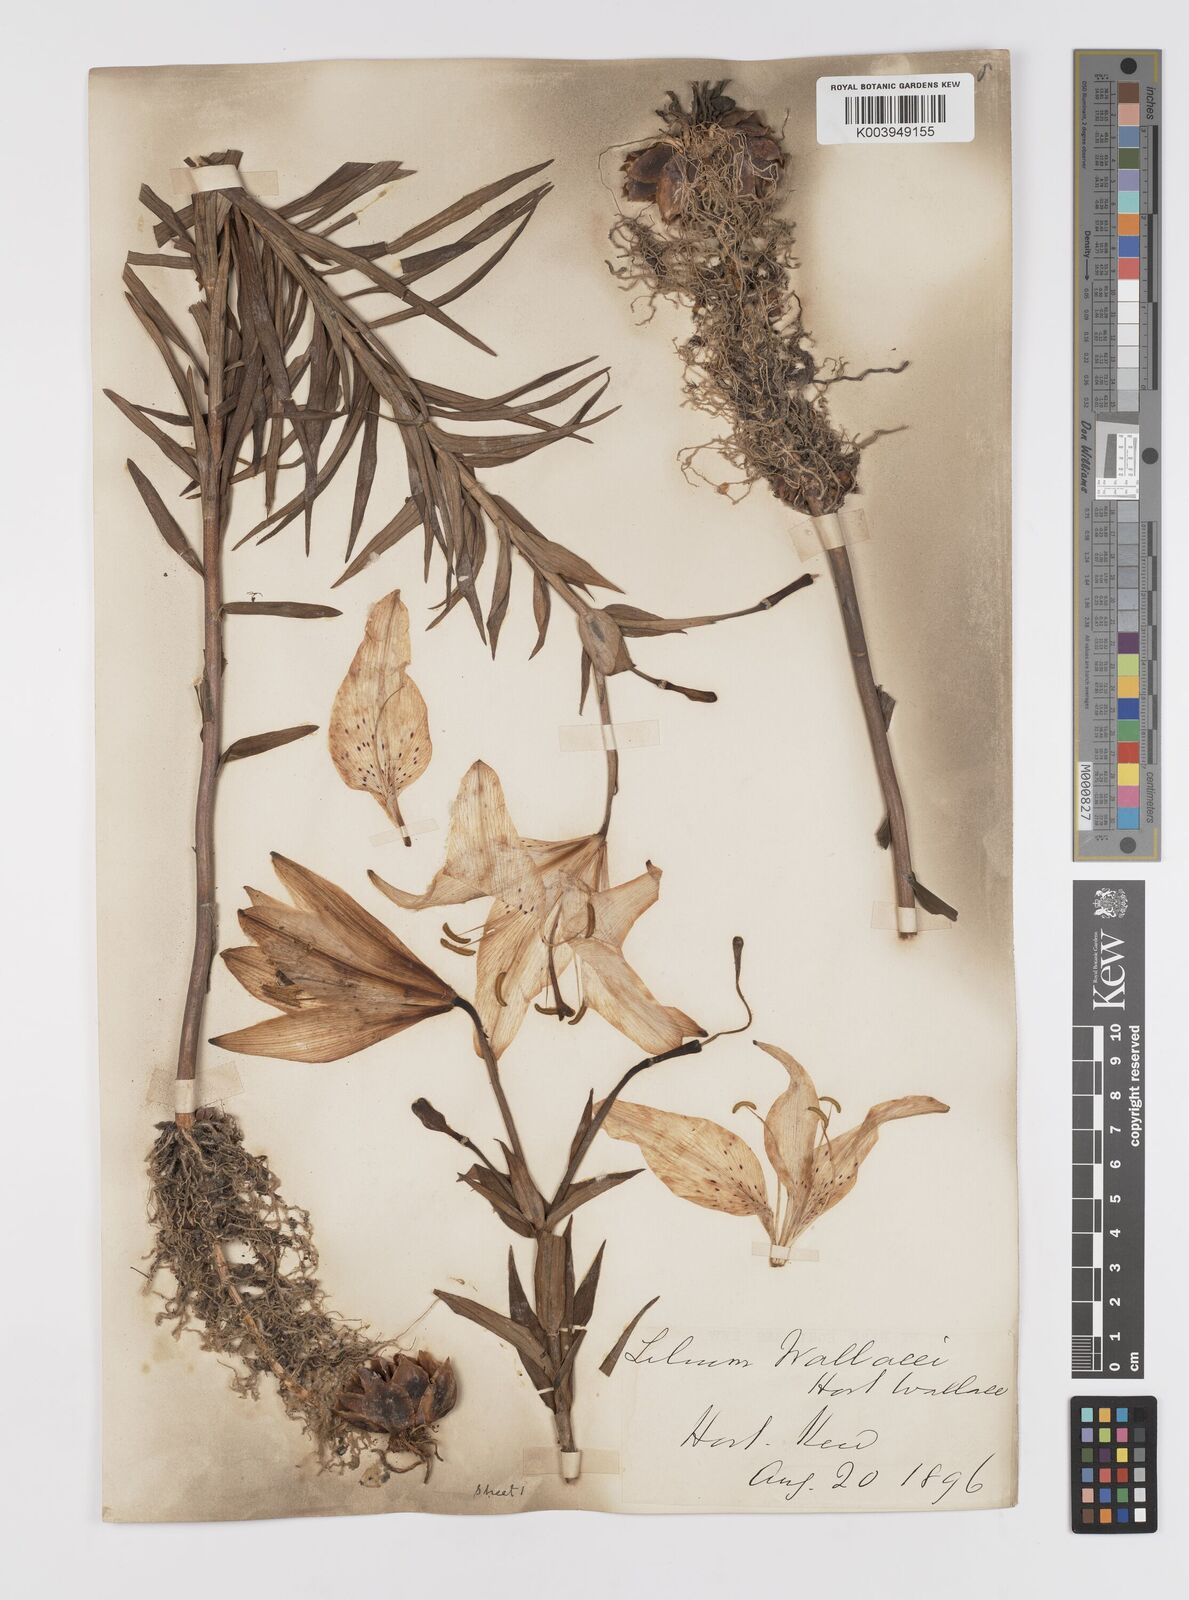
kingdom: Plantae
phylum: Tracheophyta
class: Liliopsida
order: Liliales
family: Liliaceae
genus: Lilium
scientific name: Lilium pensylvanicum
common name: Candlestick lily
